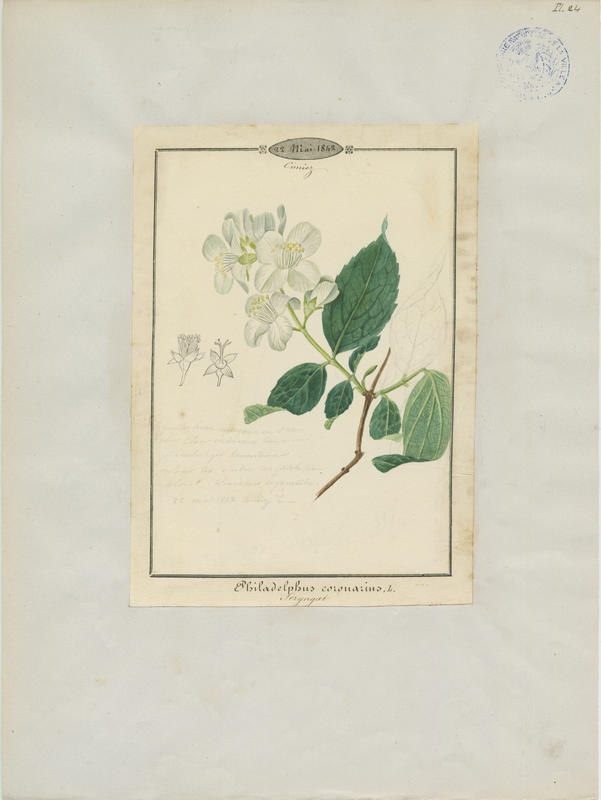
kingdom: Plantae
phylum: Tracheophyta
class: Magnoliopsida
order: Cornales
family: Hydrangeaceae
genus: Philadelphus
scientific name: Philadelphus coronarius
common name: Mock orange
